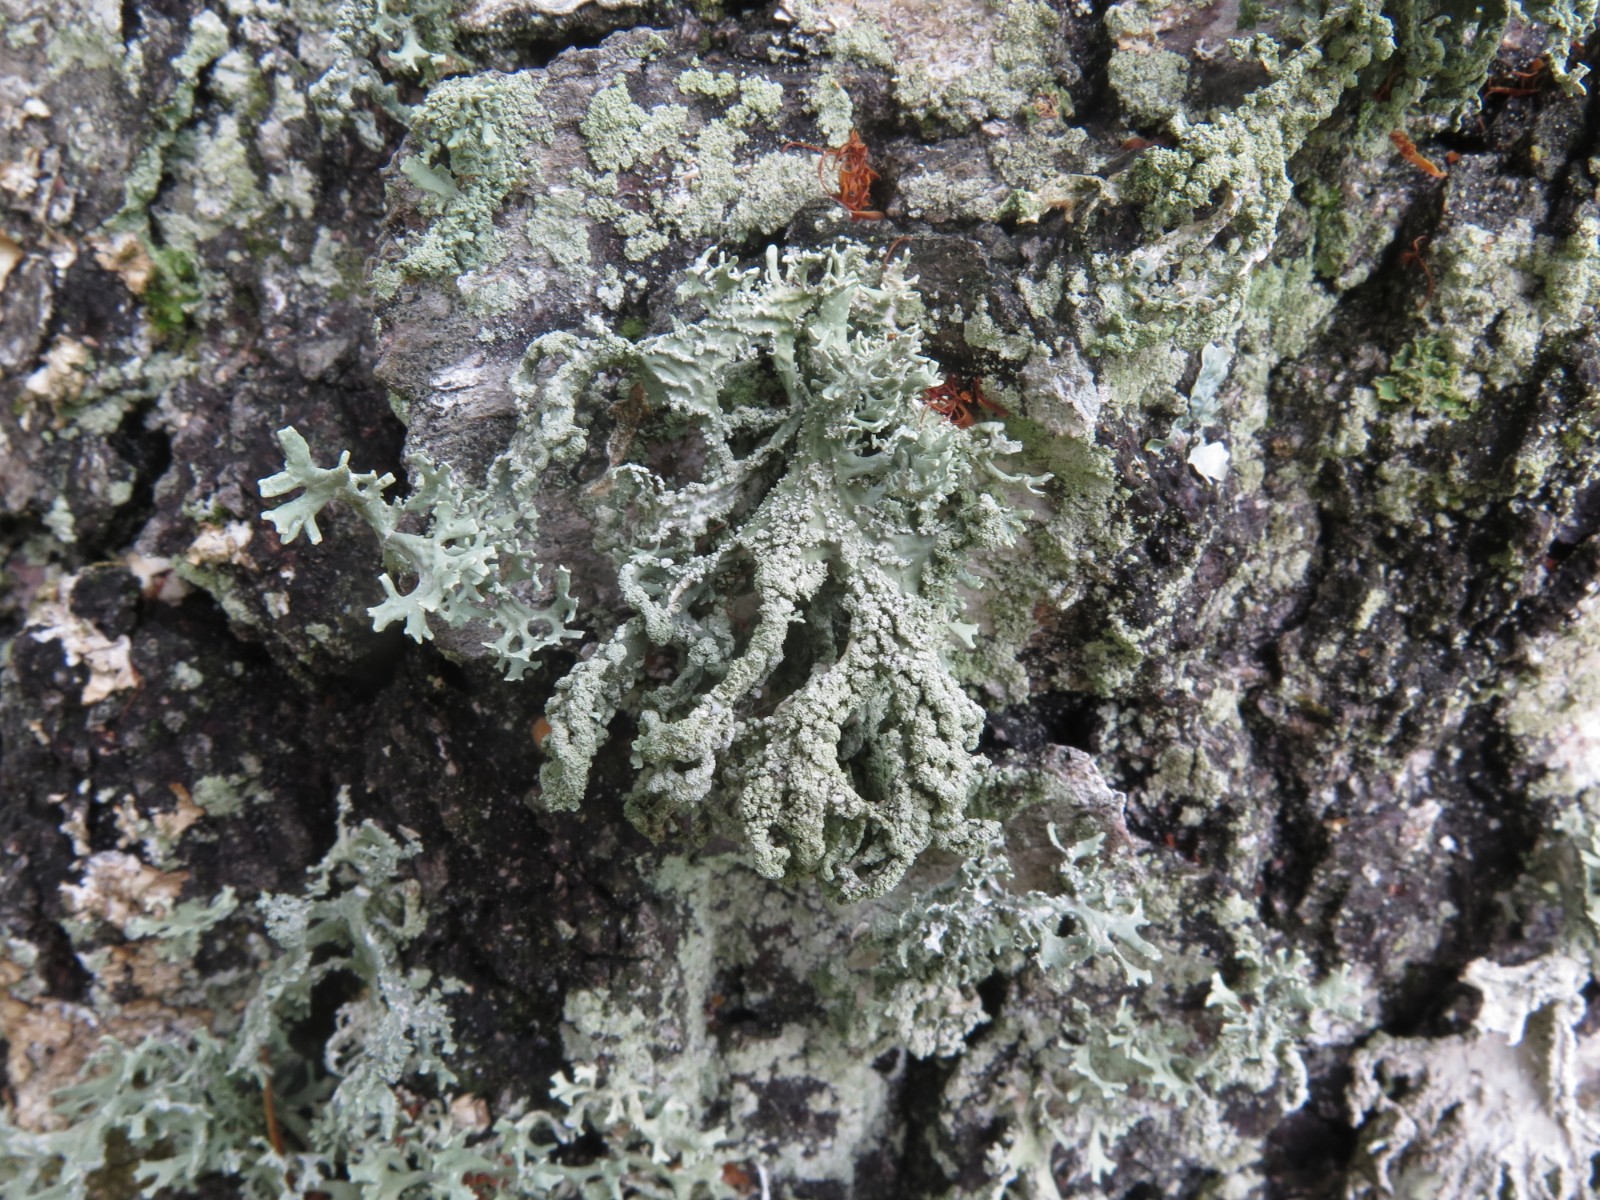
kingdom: Fungi
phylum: Ascomycota
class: Lecanoromycetes
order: Lecanorales
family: Parmeliaceae
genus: Evernia
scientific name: Evernia prunastri
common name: almindelig slåenlav
